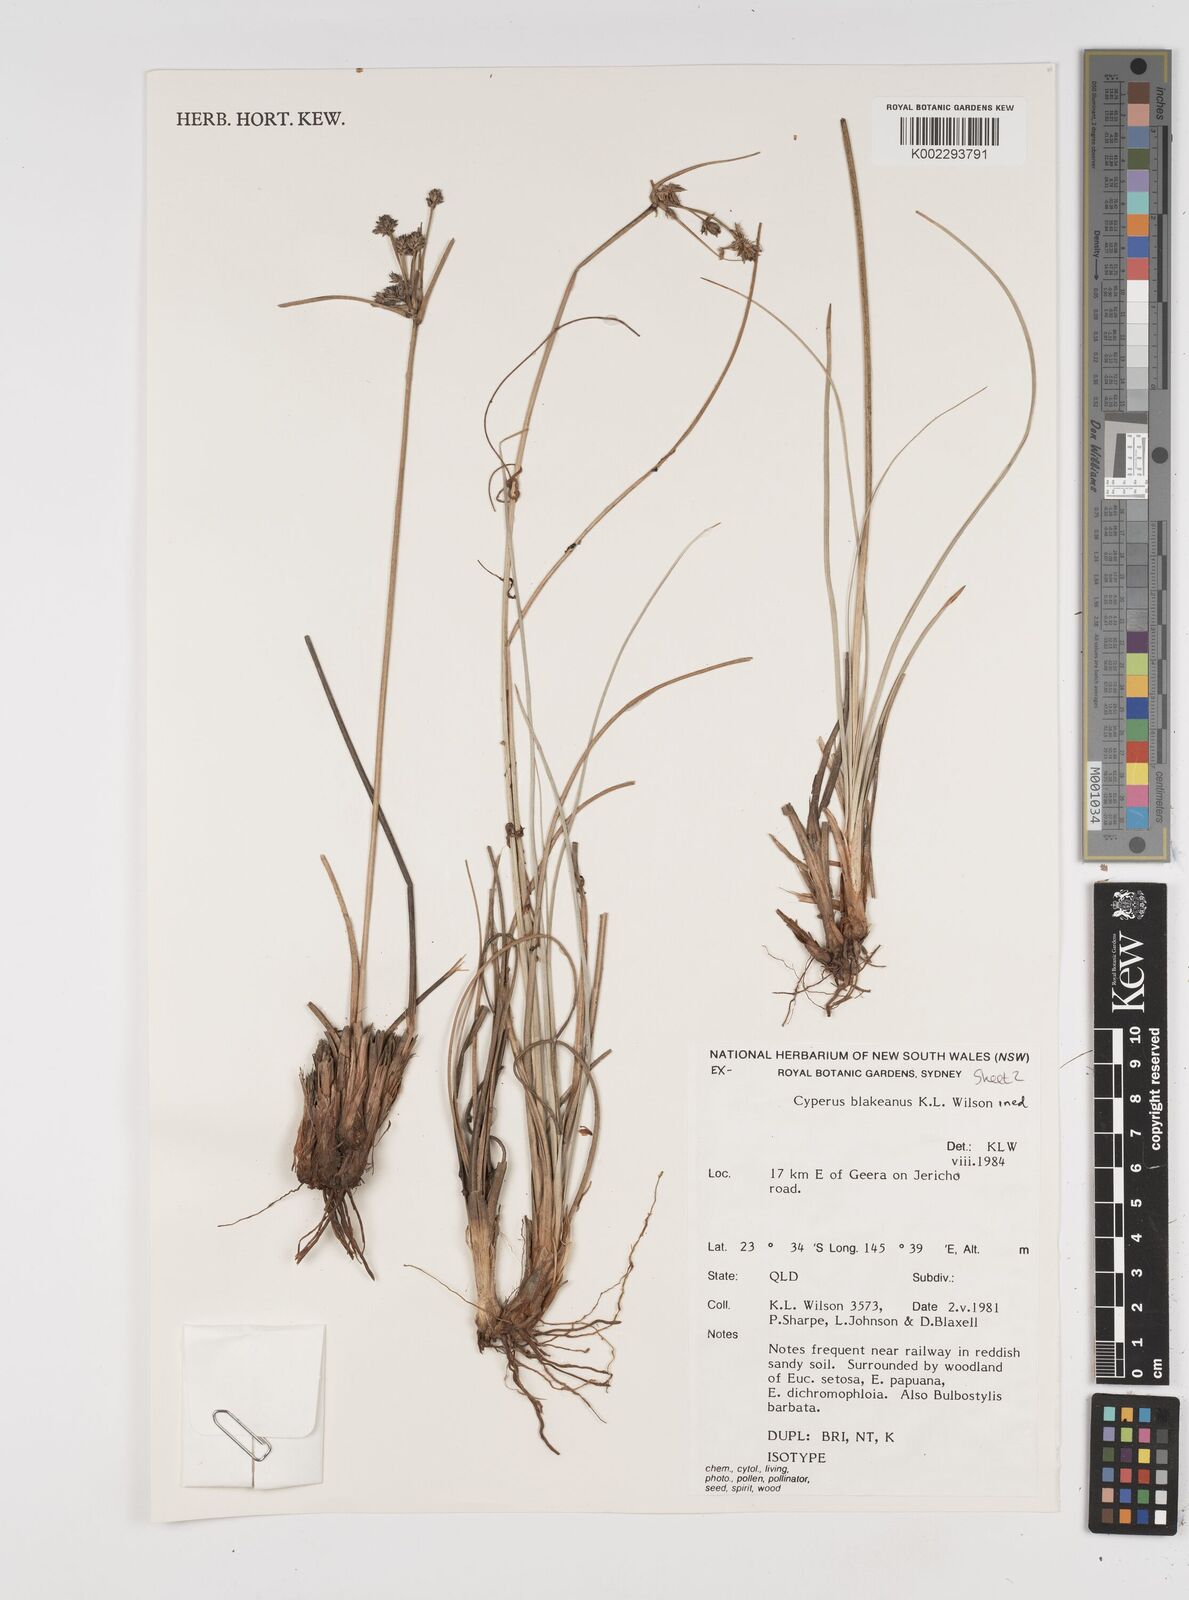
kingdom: Plantae
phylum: Tracheophyta
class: Liliopsida
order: Poales
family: Cyperaceae
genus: Cyperus
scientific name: Cyperus blakeanus
